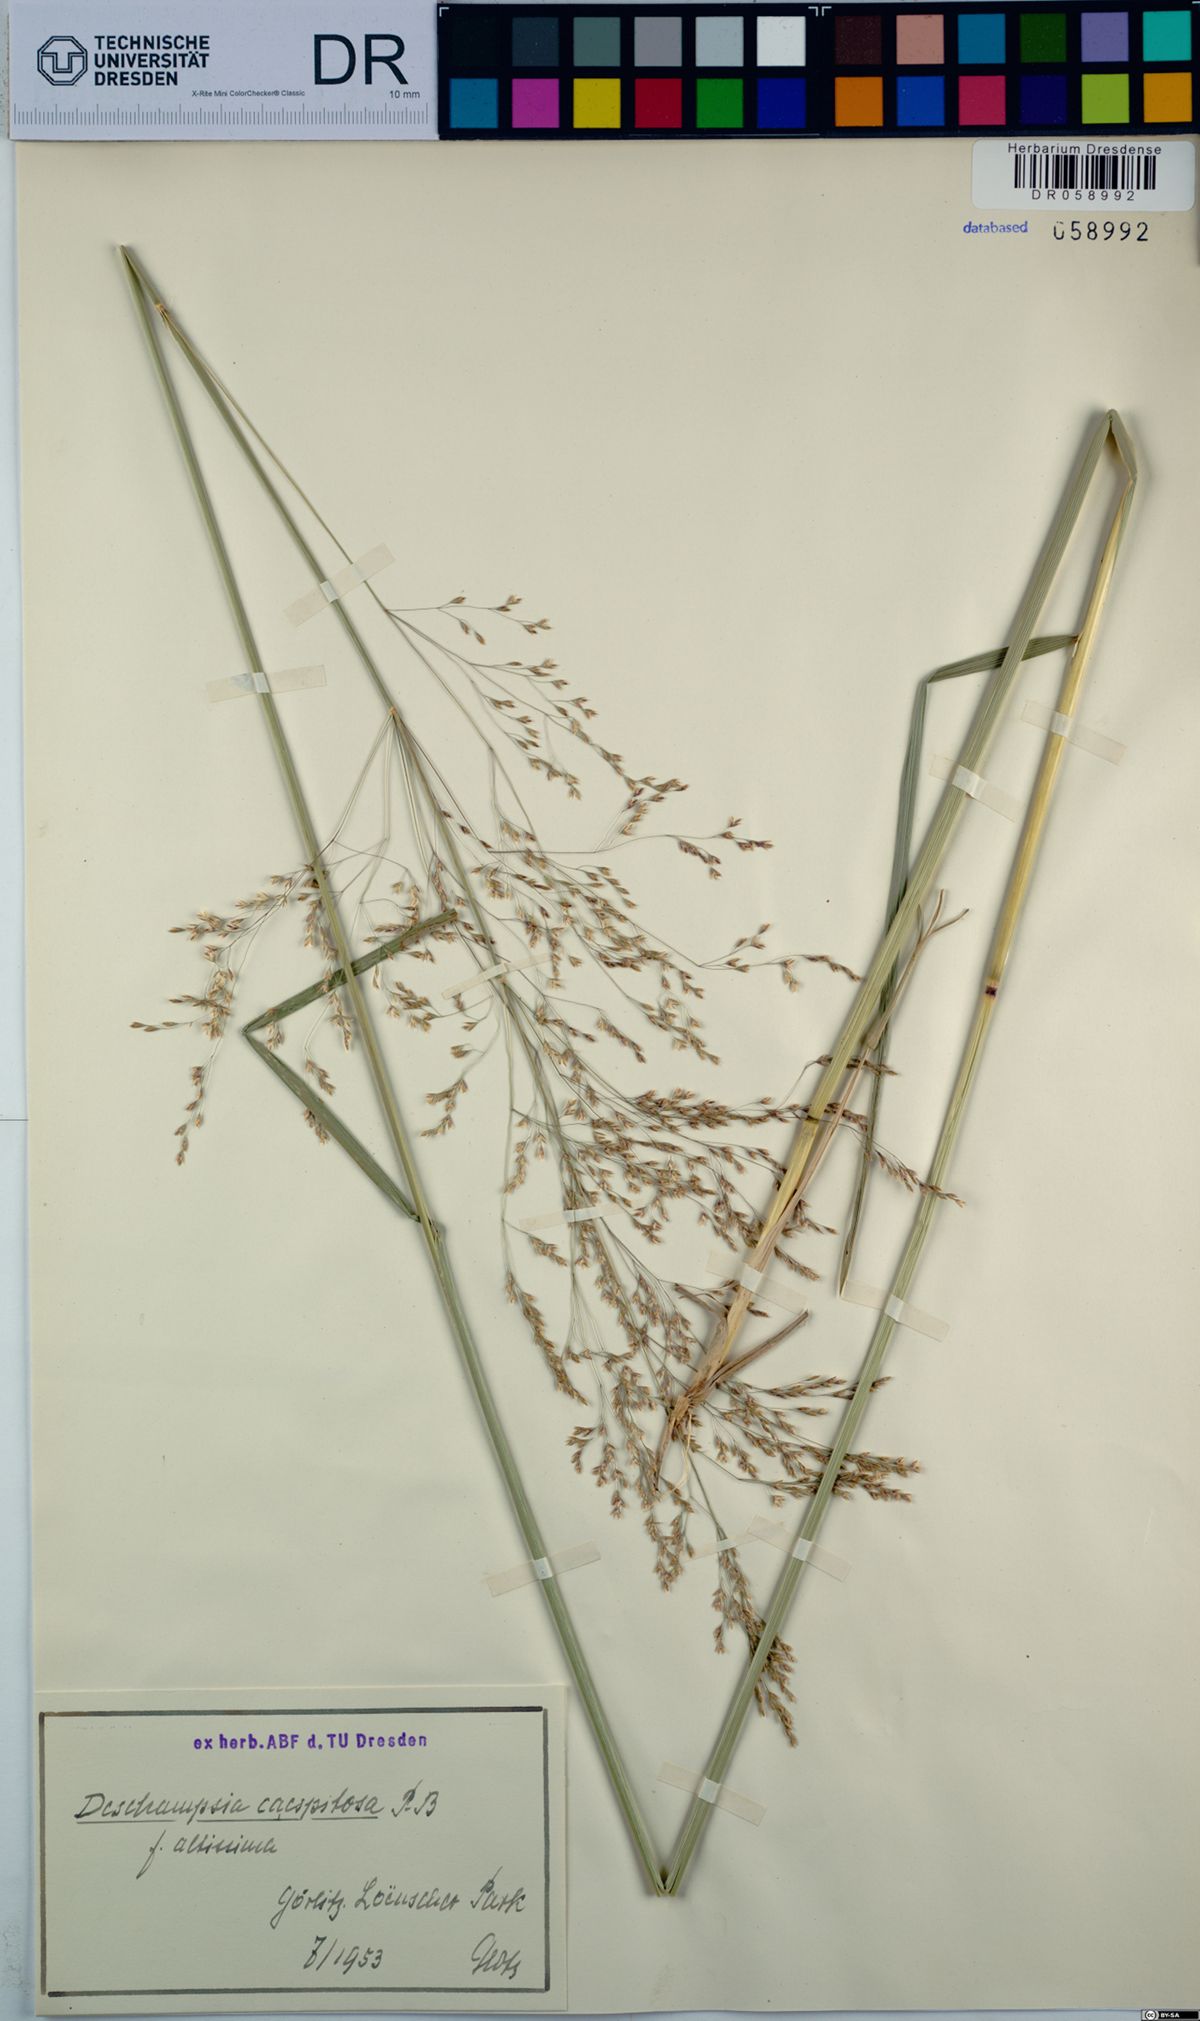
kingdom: Plantae
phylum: Tracheophyta
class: Liliopsida
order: Poales
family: Poaceae
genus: Deschampsia
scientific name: Deschampsia cespitosa
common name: Tufted hair-grass
